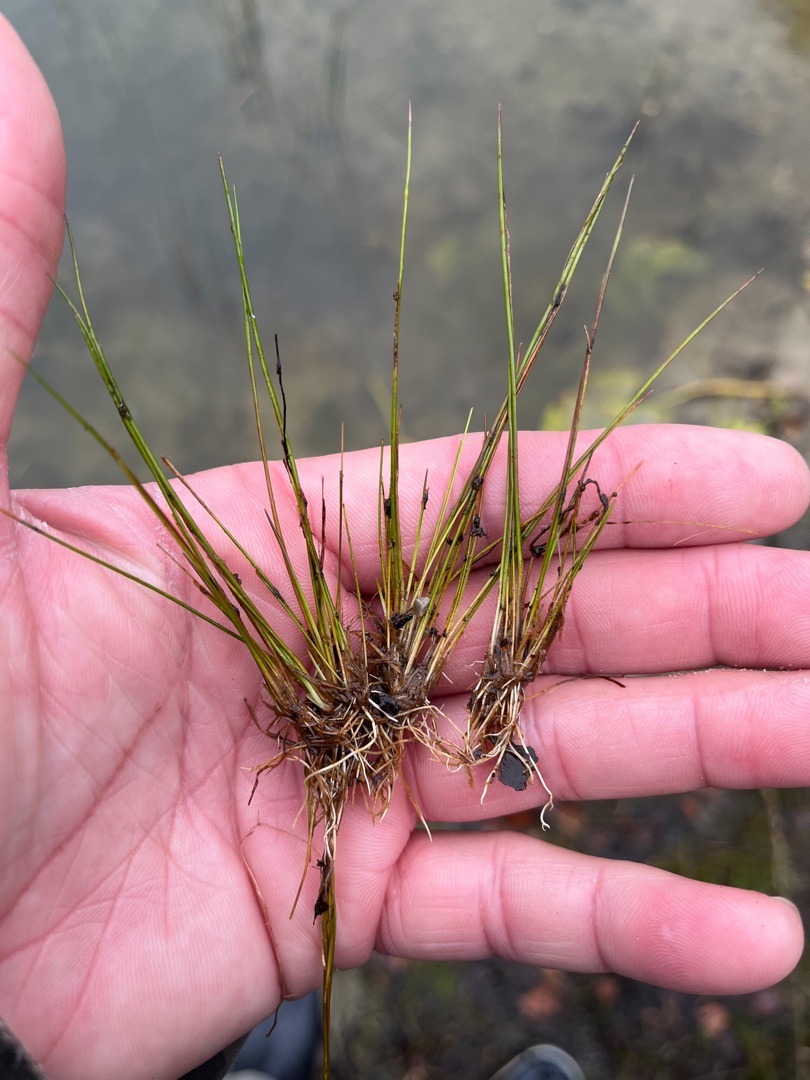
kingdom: Plantae
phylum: Tracheophyta
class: Liliopsida
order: Poales
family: Cyperaceae
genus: Eleocharis
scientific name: Eleocharis acicularis
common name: Nåle-sumpstrå
